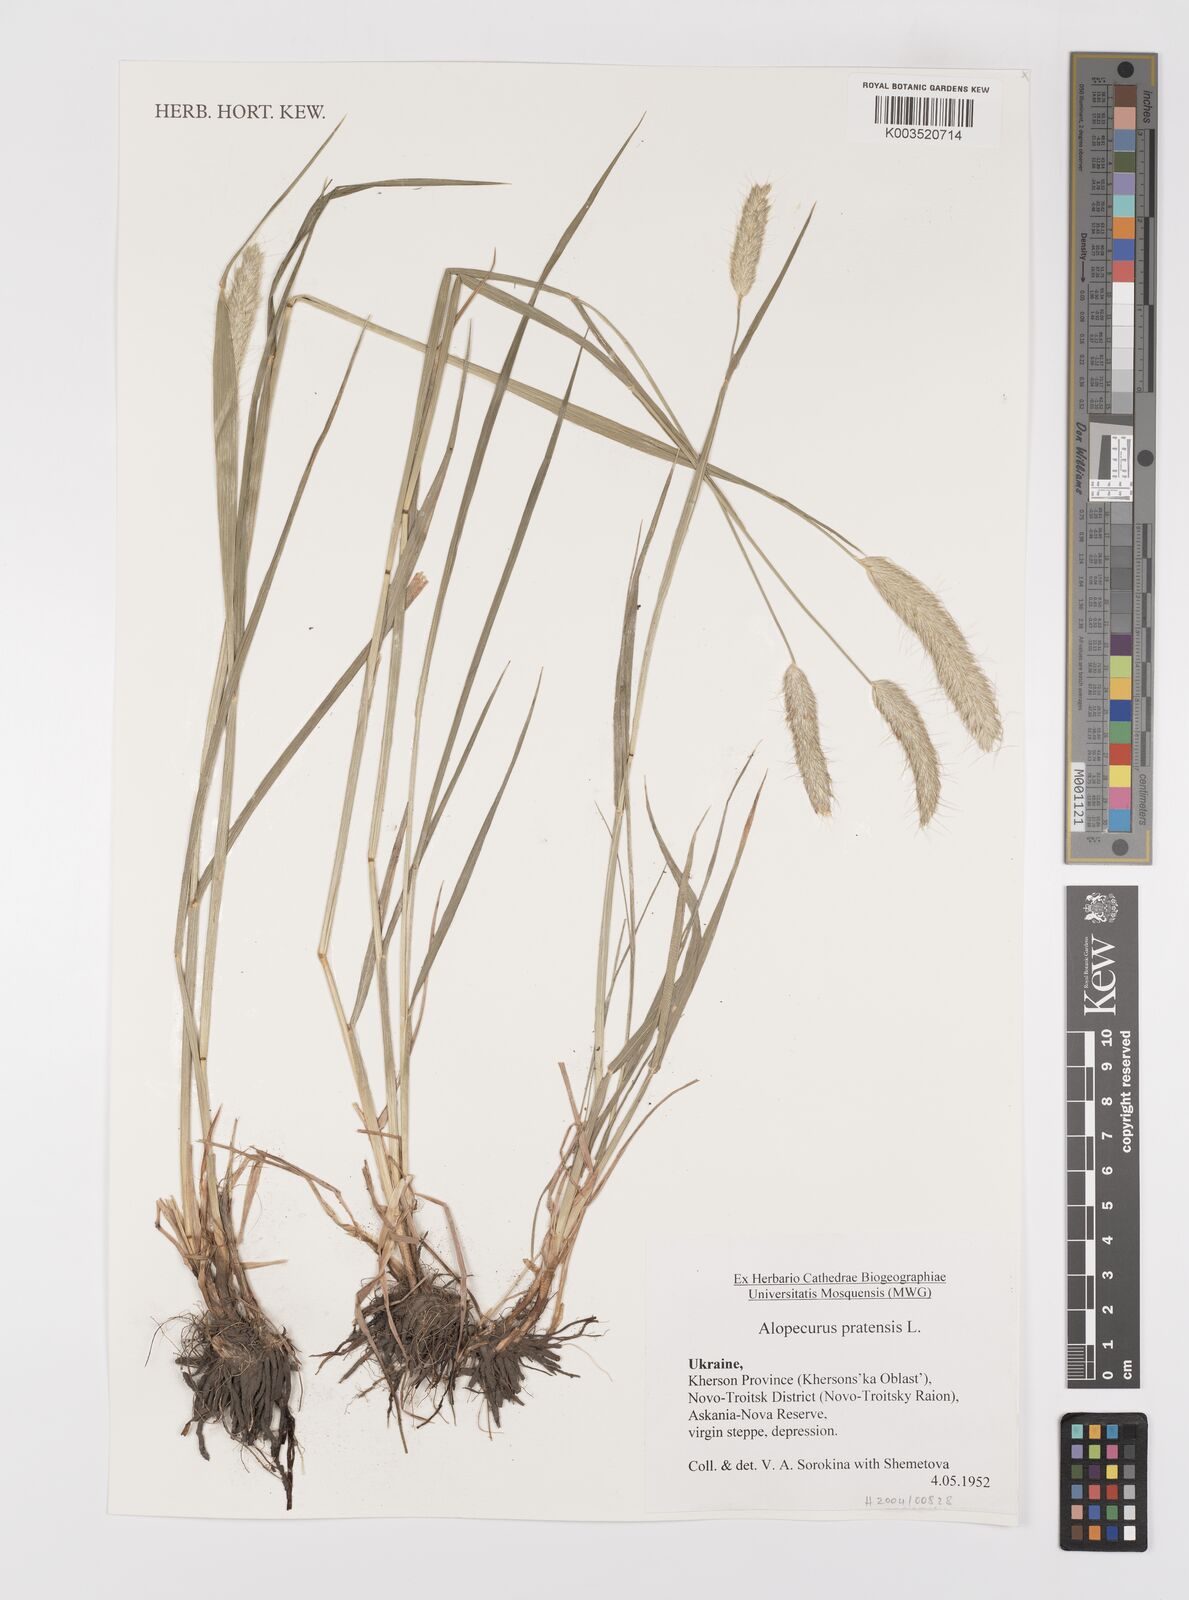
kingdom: Plantae
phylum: Tracheophyta
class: Liliopsida
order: Poales
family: Poaceae
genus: Alopecurus
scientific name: Alopecurus pratensis
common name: Meadow foxtail
